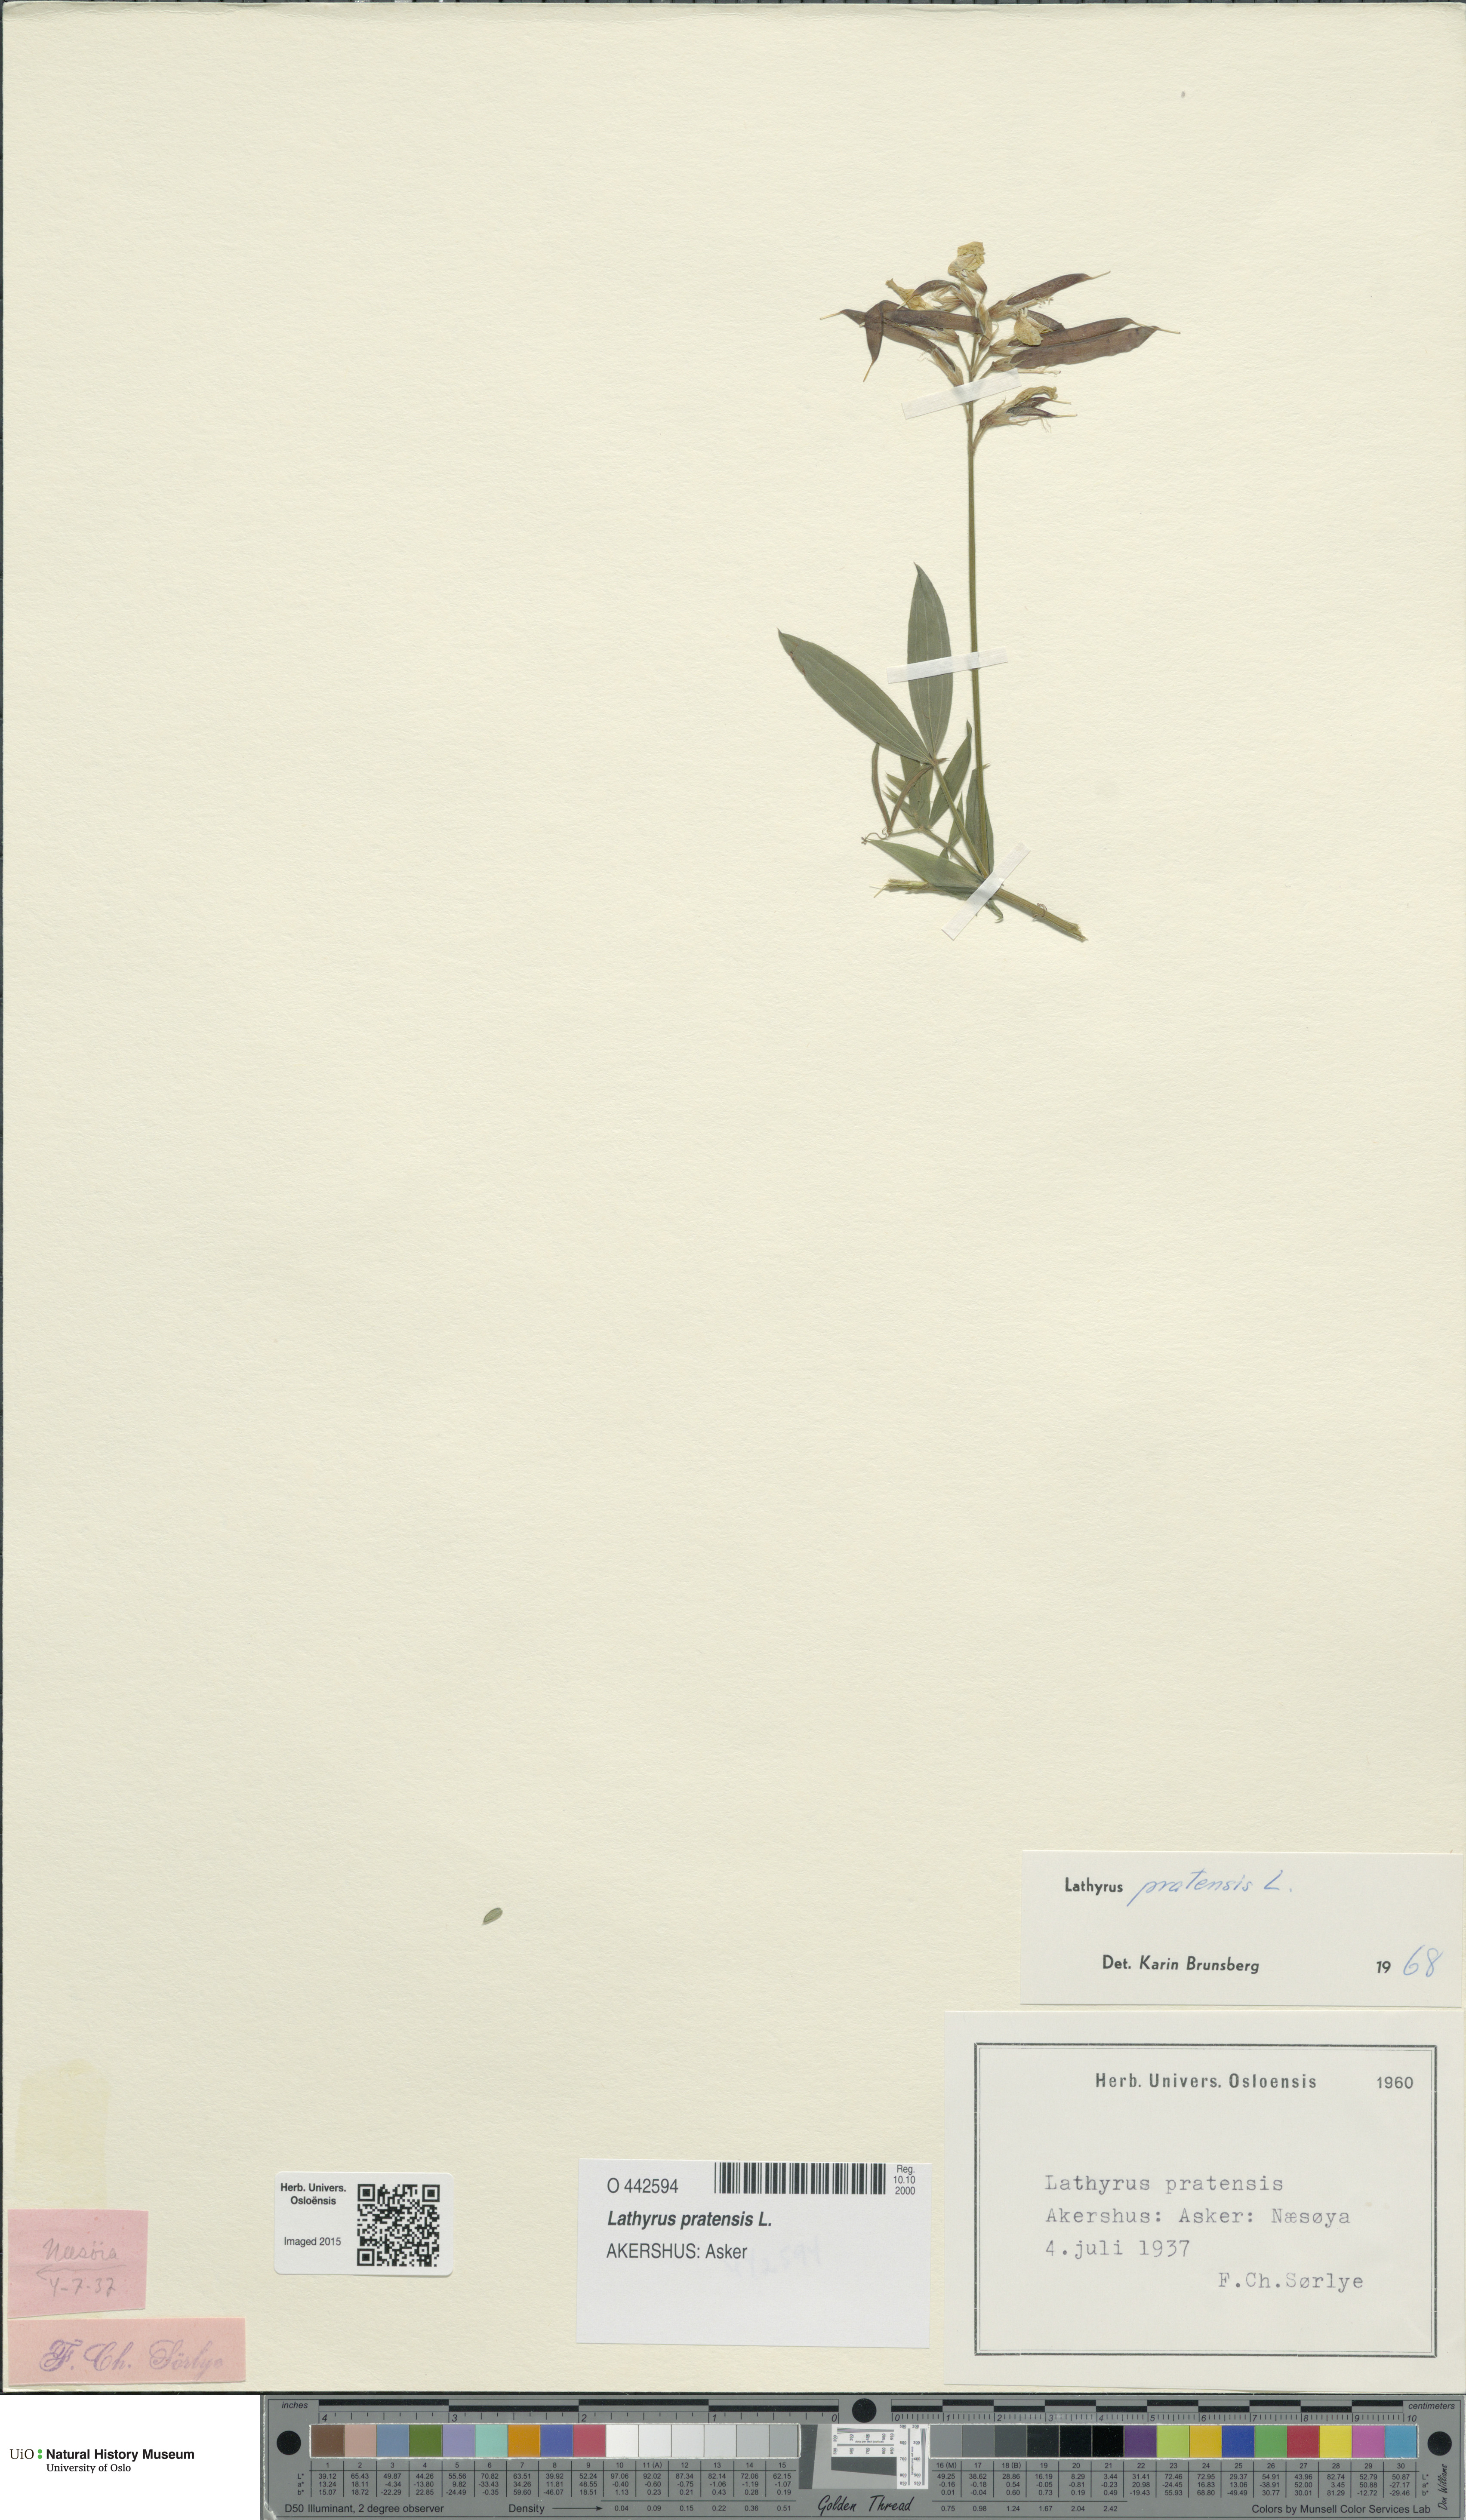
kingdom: Plantae
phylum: Tracheophyta
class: Magnoliopsida
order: Fabales
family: Fabaceae
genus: Lathyrus
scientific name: Lathyrus pratensis
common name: Meadow vetchling
